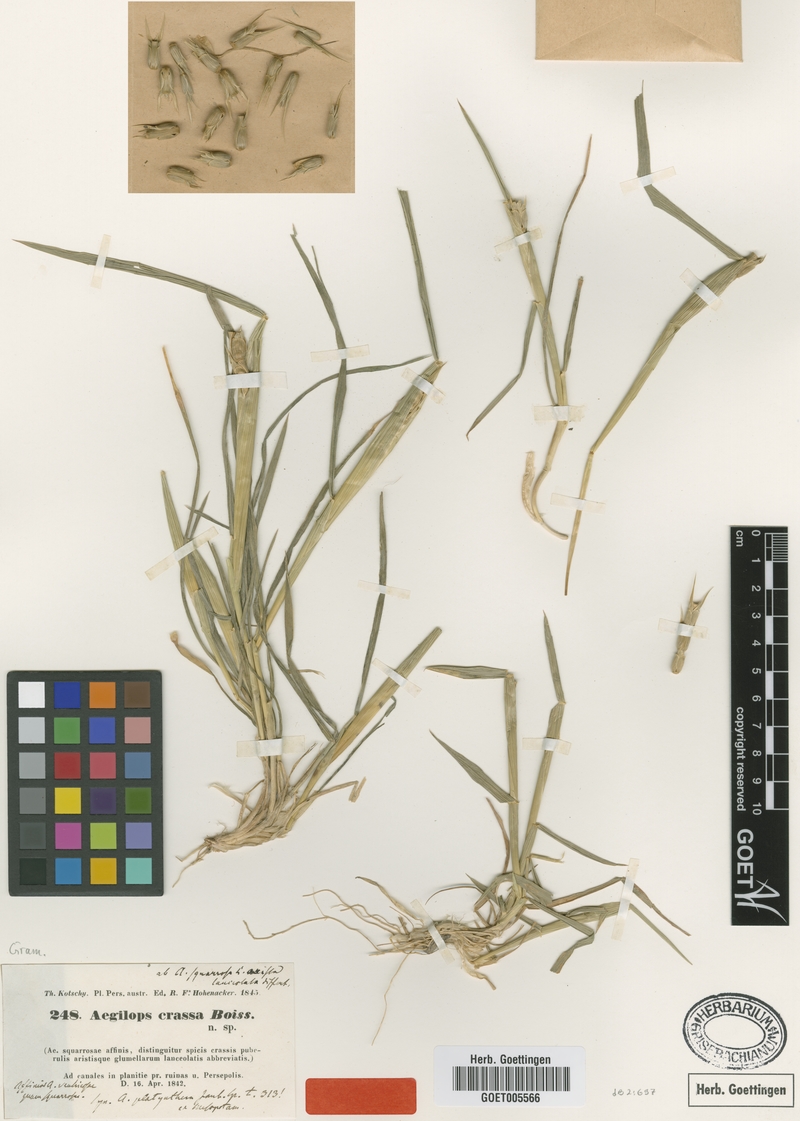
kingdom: Plantae
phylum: Tracheophyta
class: Liliopsida
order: Poales
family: Poaceae
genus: Aegilops
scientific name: Aegilops crassa
